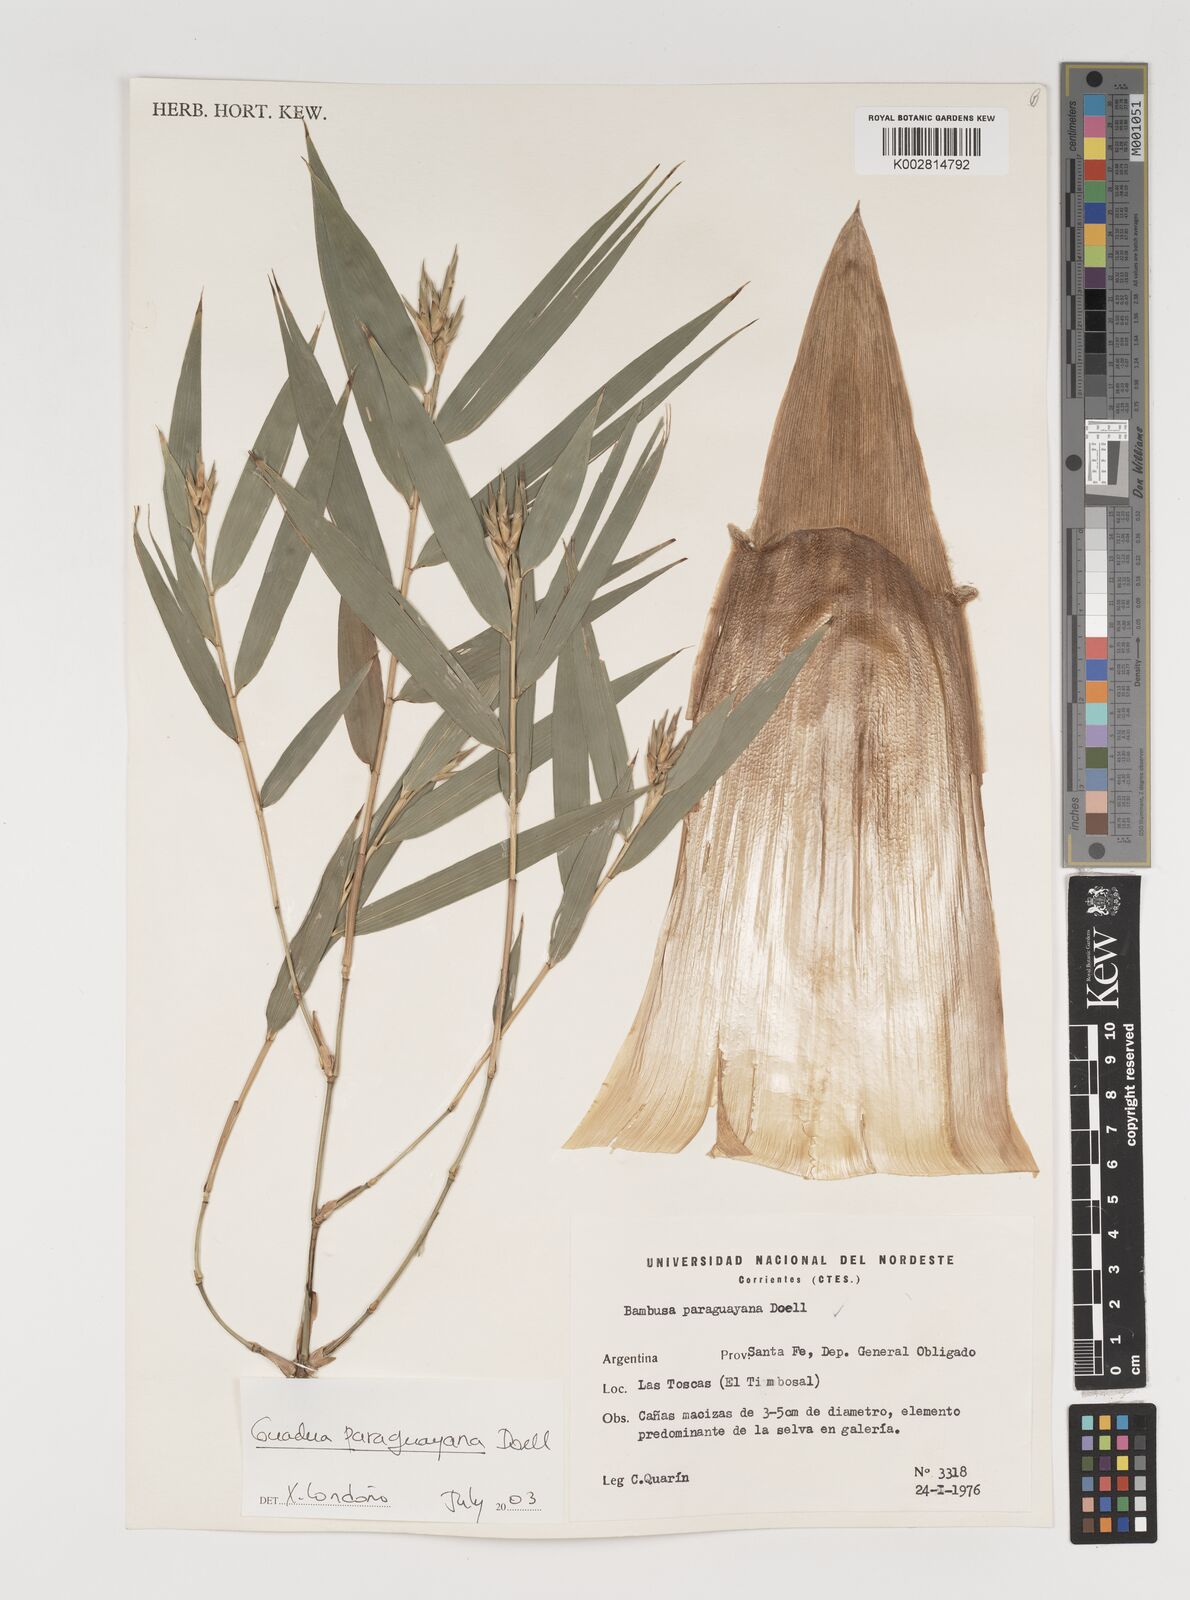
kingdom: Plantae
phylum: Tracheophyta
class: Liliopsida
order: Poales
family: Poaceae
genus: Guadua
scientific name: Guadua paraguayana
